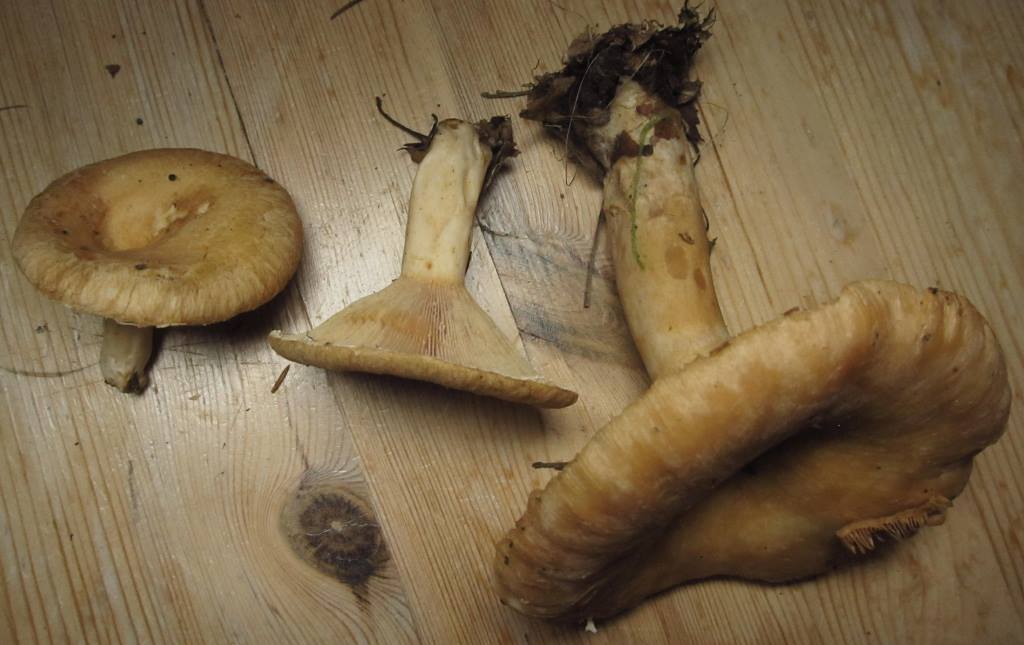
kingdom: Fungi
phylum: Basidiomycota
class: Agaricomycetes
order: Russulales
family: Russulaceae
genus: Lactarius
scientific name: Lactarius leonis
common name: løvegul mælkehat
